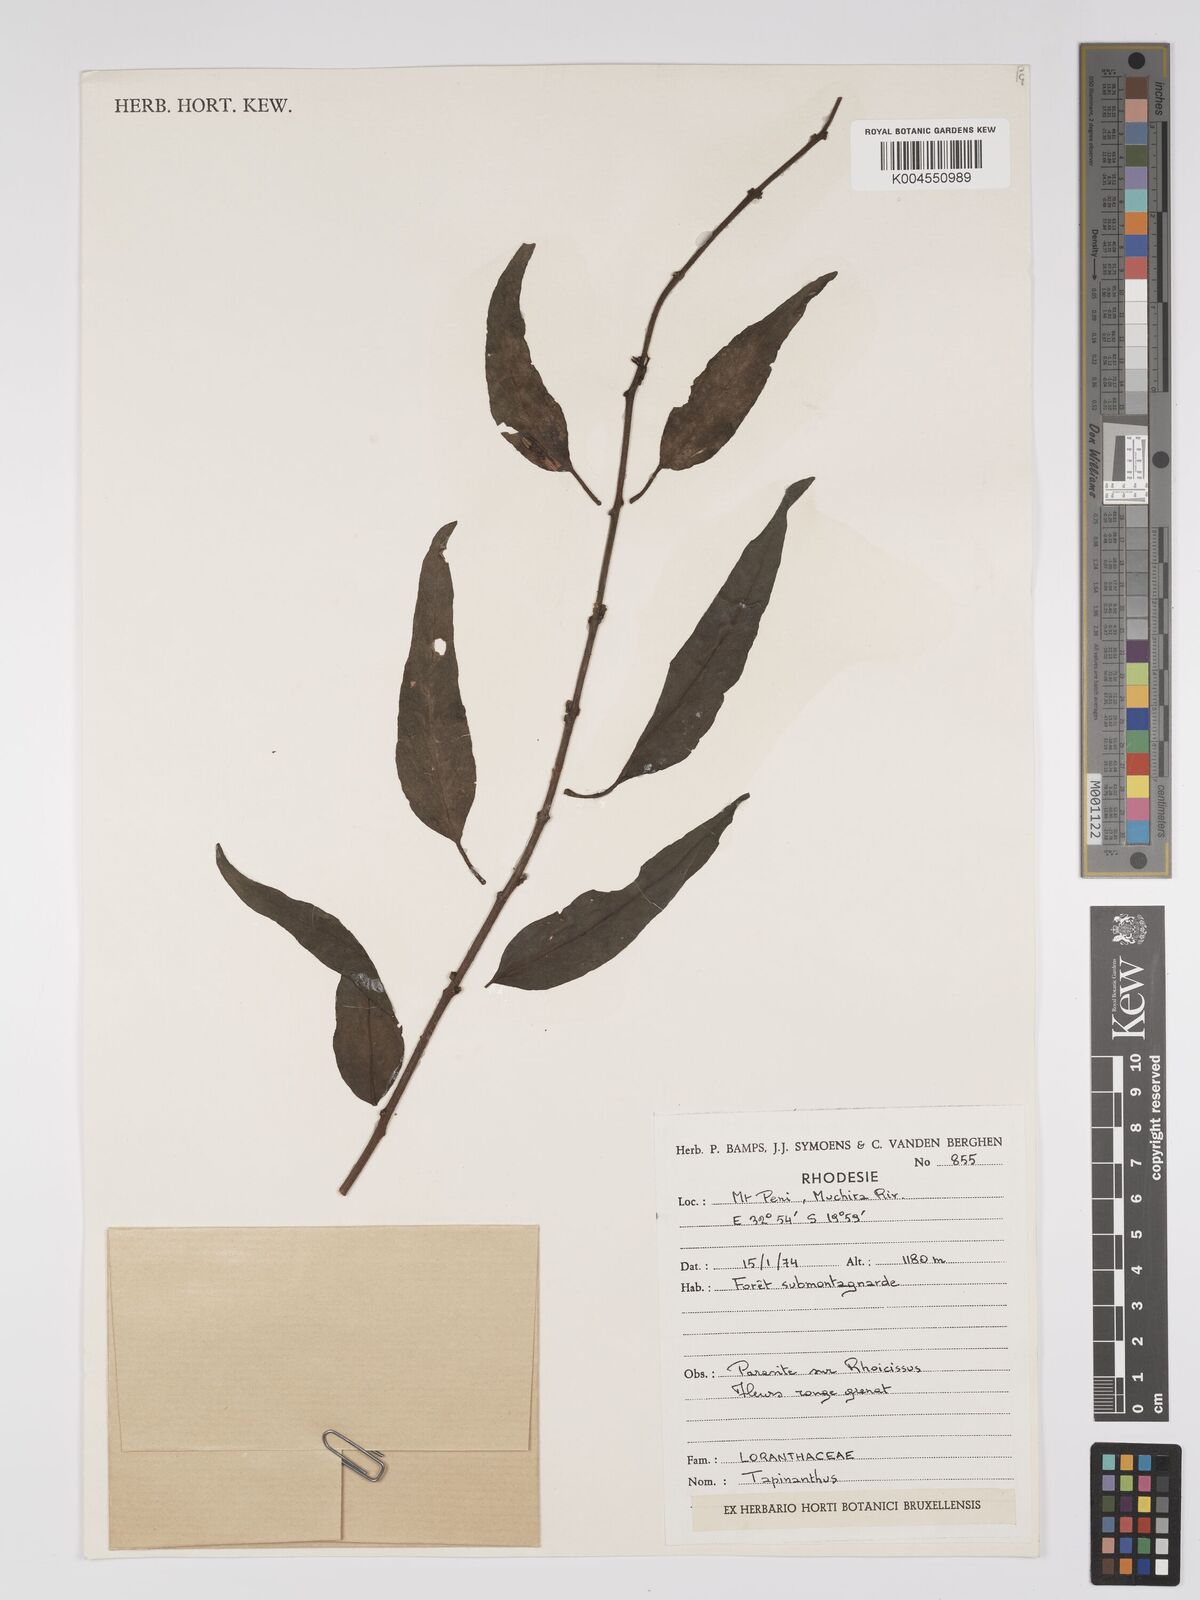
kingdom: Plantae
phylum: Tracheophyta
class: Magnoliopsida
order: Santalales
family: Loranthaceae
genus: Agelanthus
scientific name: Agelanthus lancifolius
